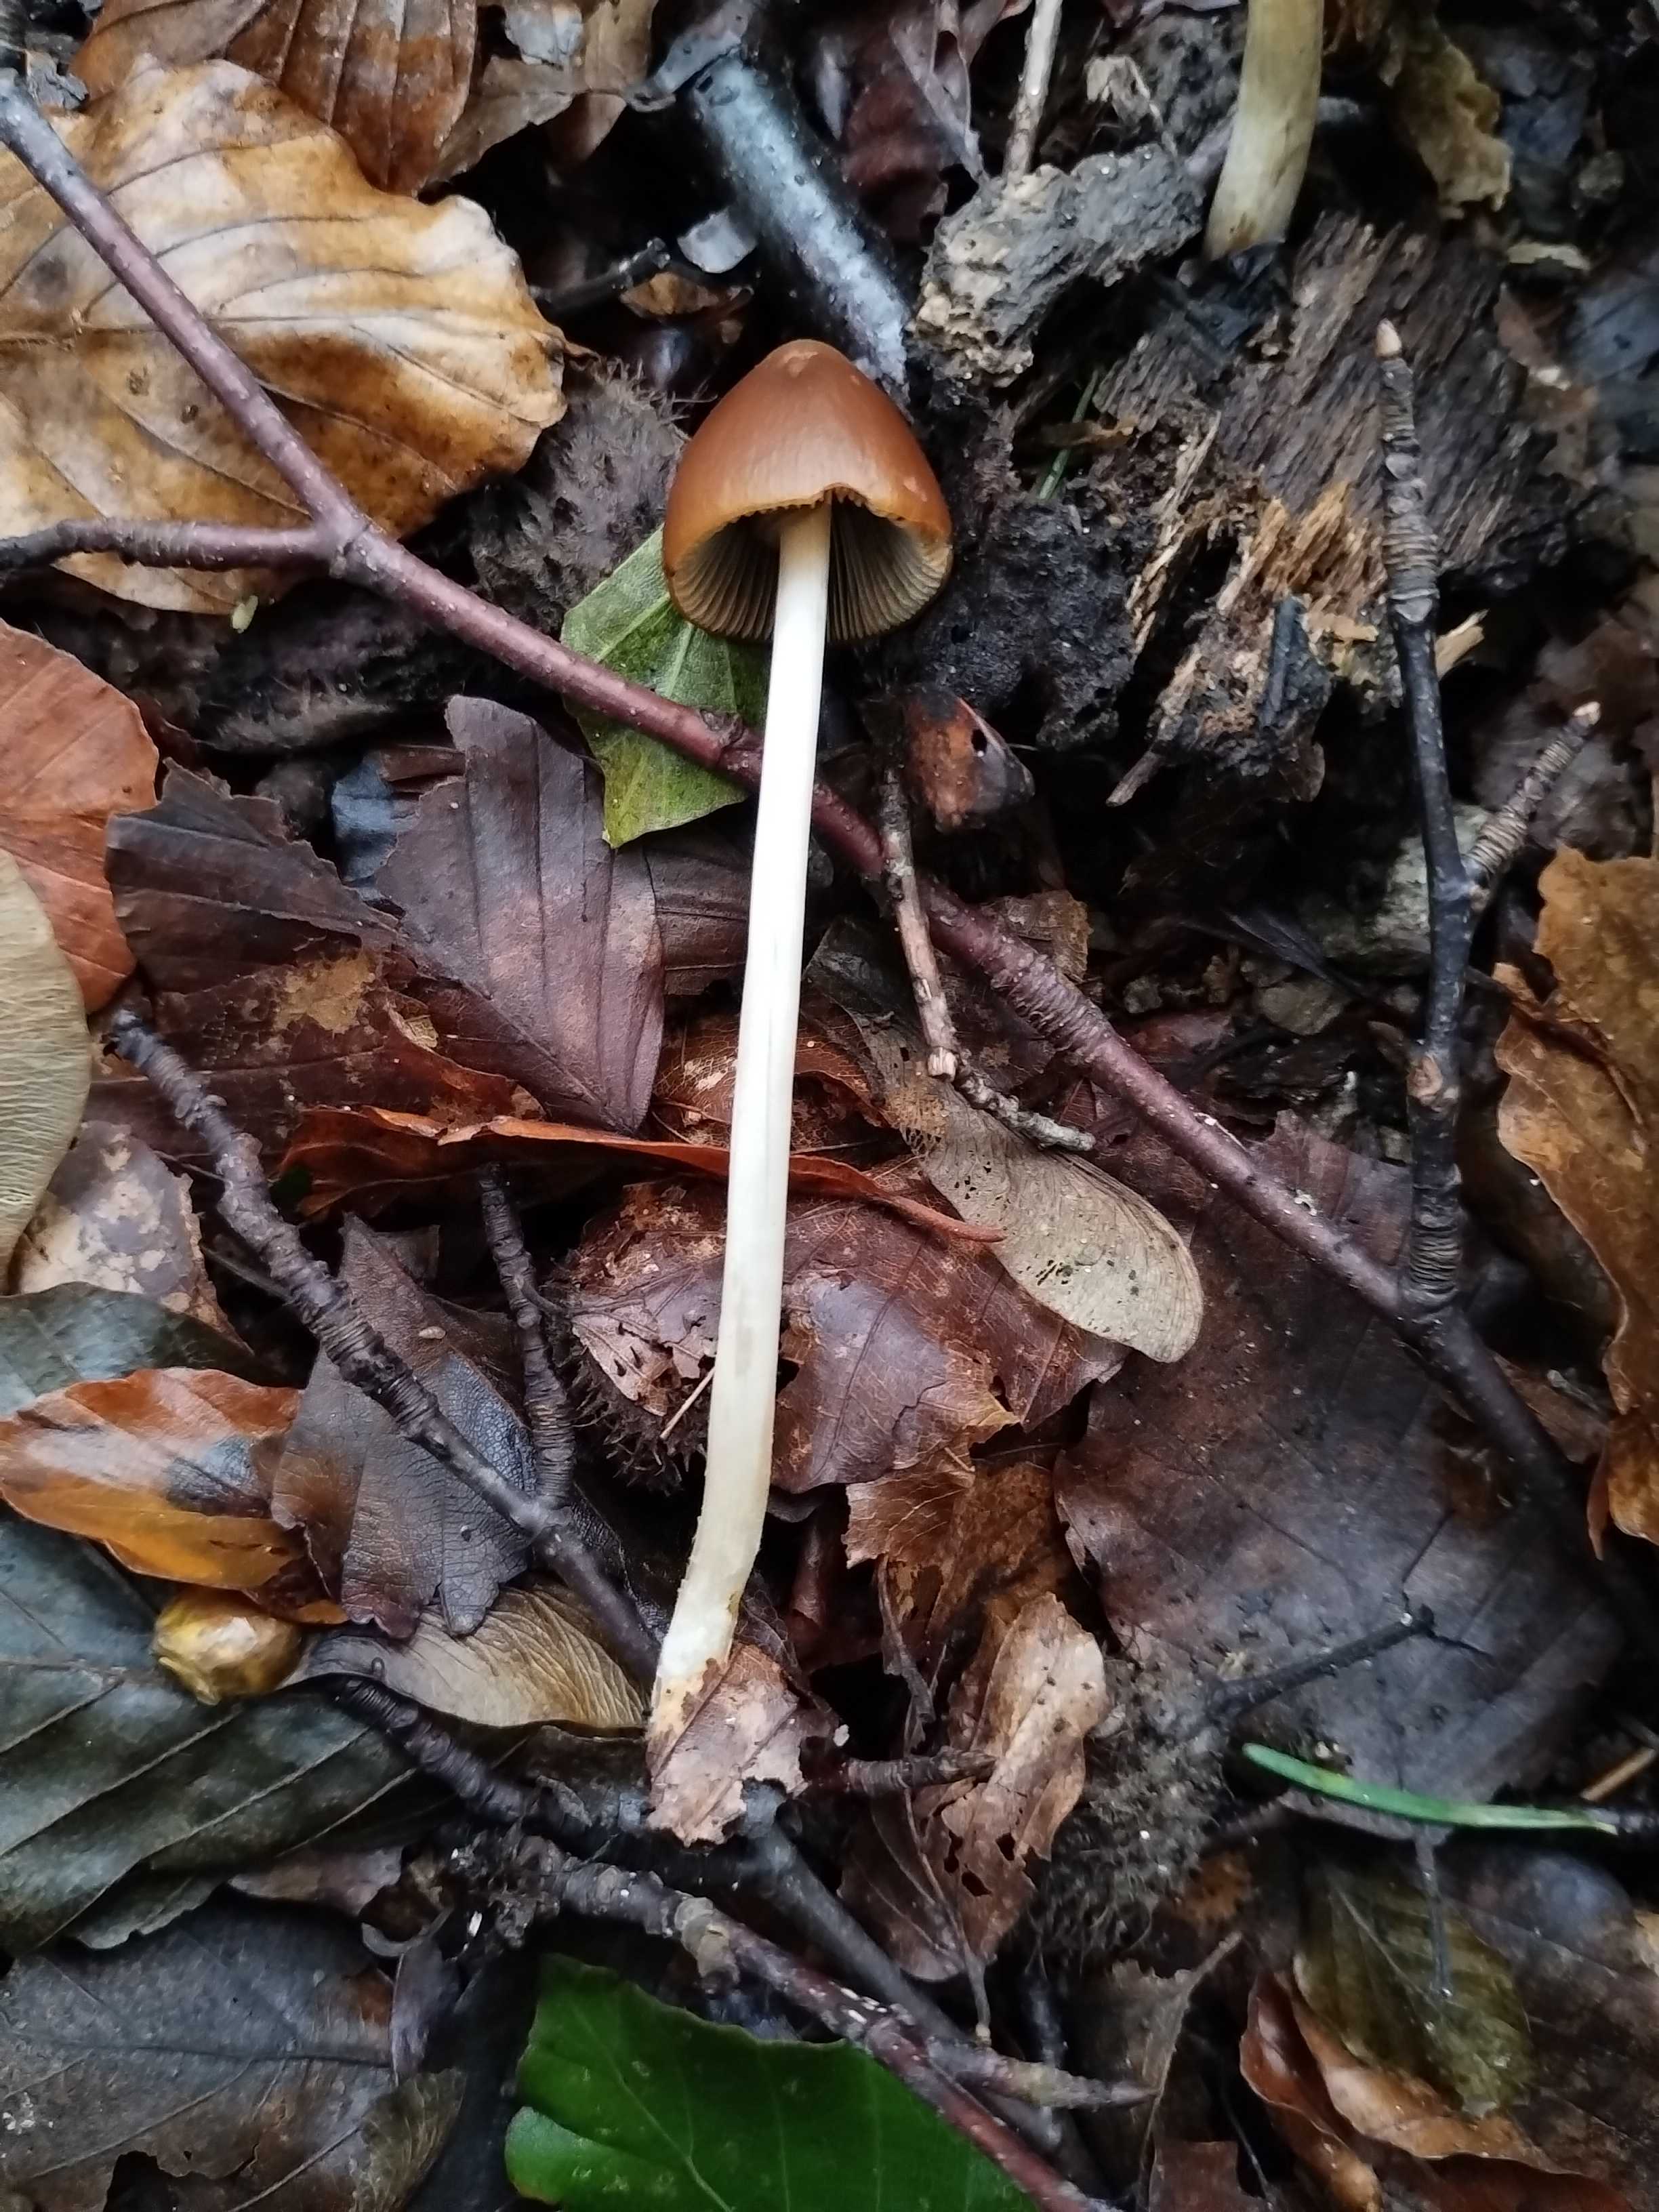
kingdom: Fungi
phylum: Basidiomycota
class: Agaricomycetes
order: Agaricales
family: Psathyrellaceae
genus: Parasola
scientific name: Parasola conopilea
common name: kegle-hjulhat
